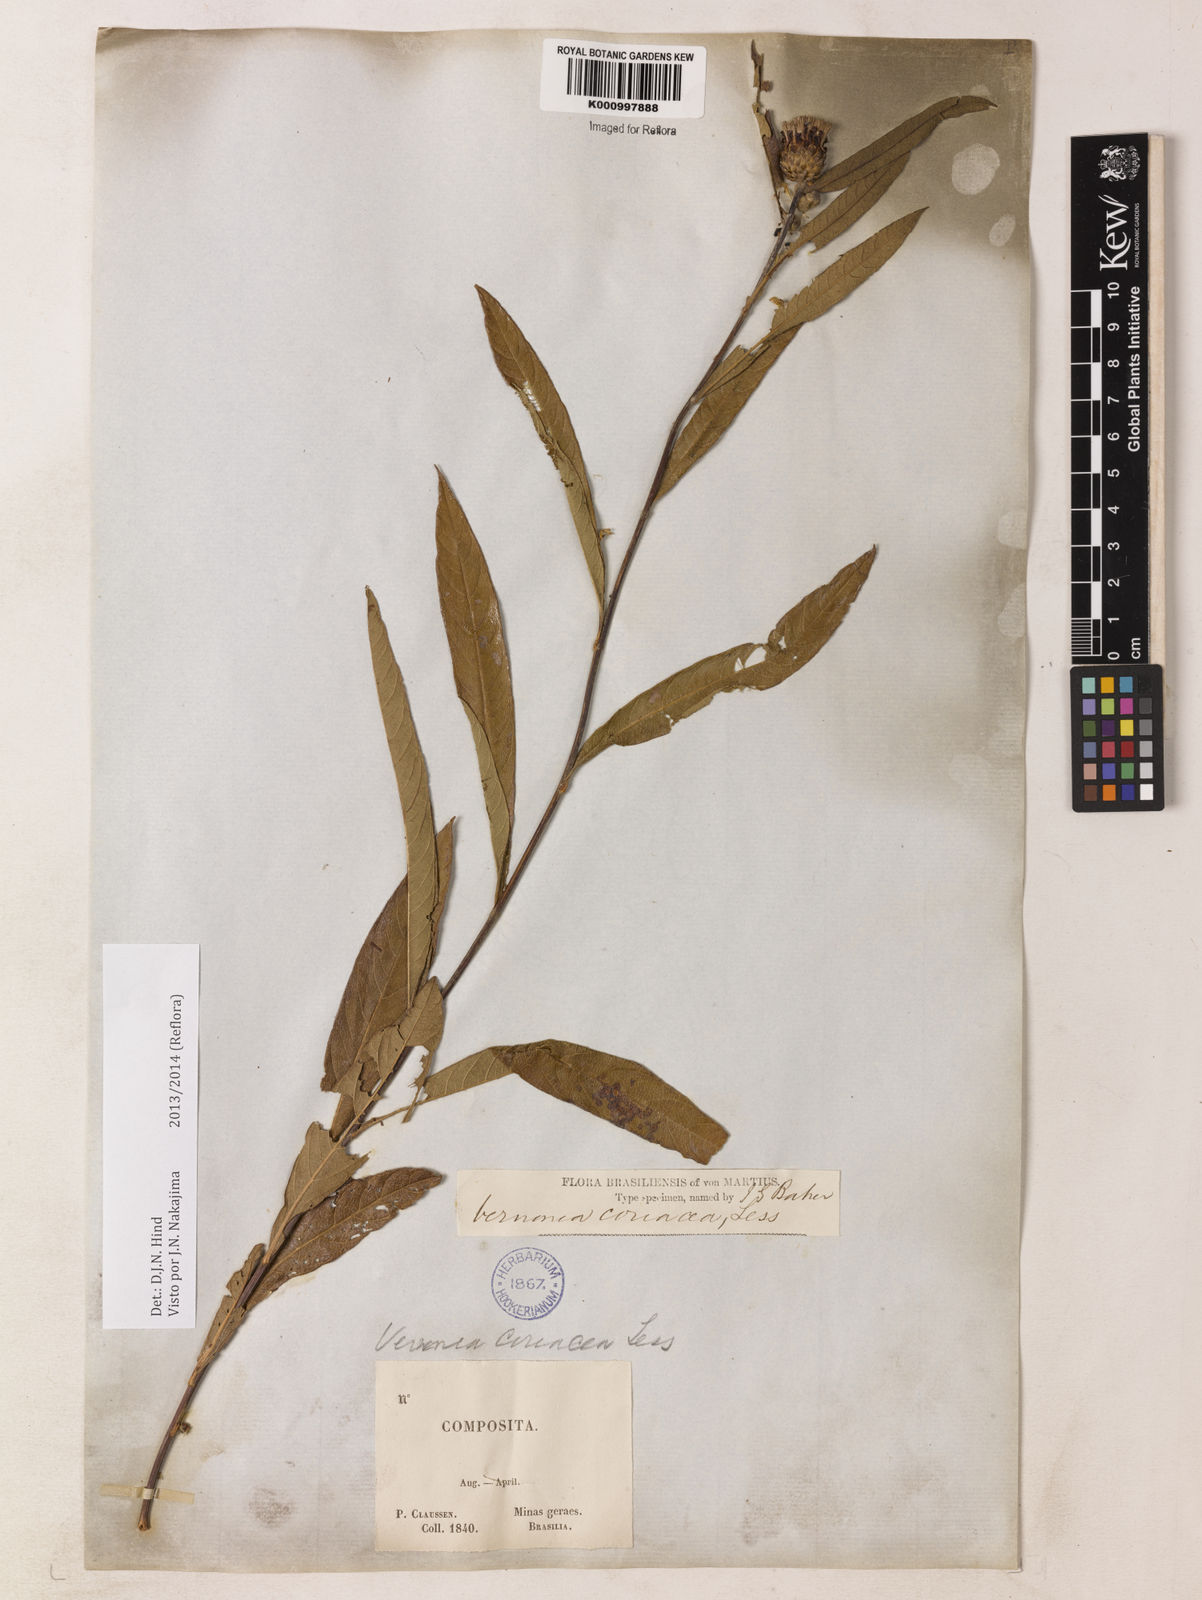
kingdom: Plantae
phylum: Tracheophyta
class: Magnoliopsida
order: Asterales
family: Asteraceae
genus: Lessingianthus
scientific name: Lessingianthus coriaceus
